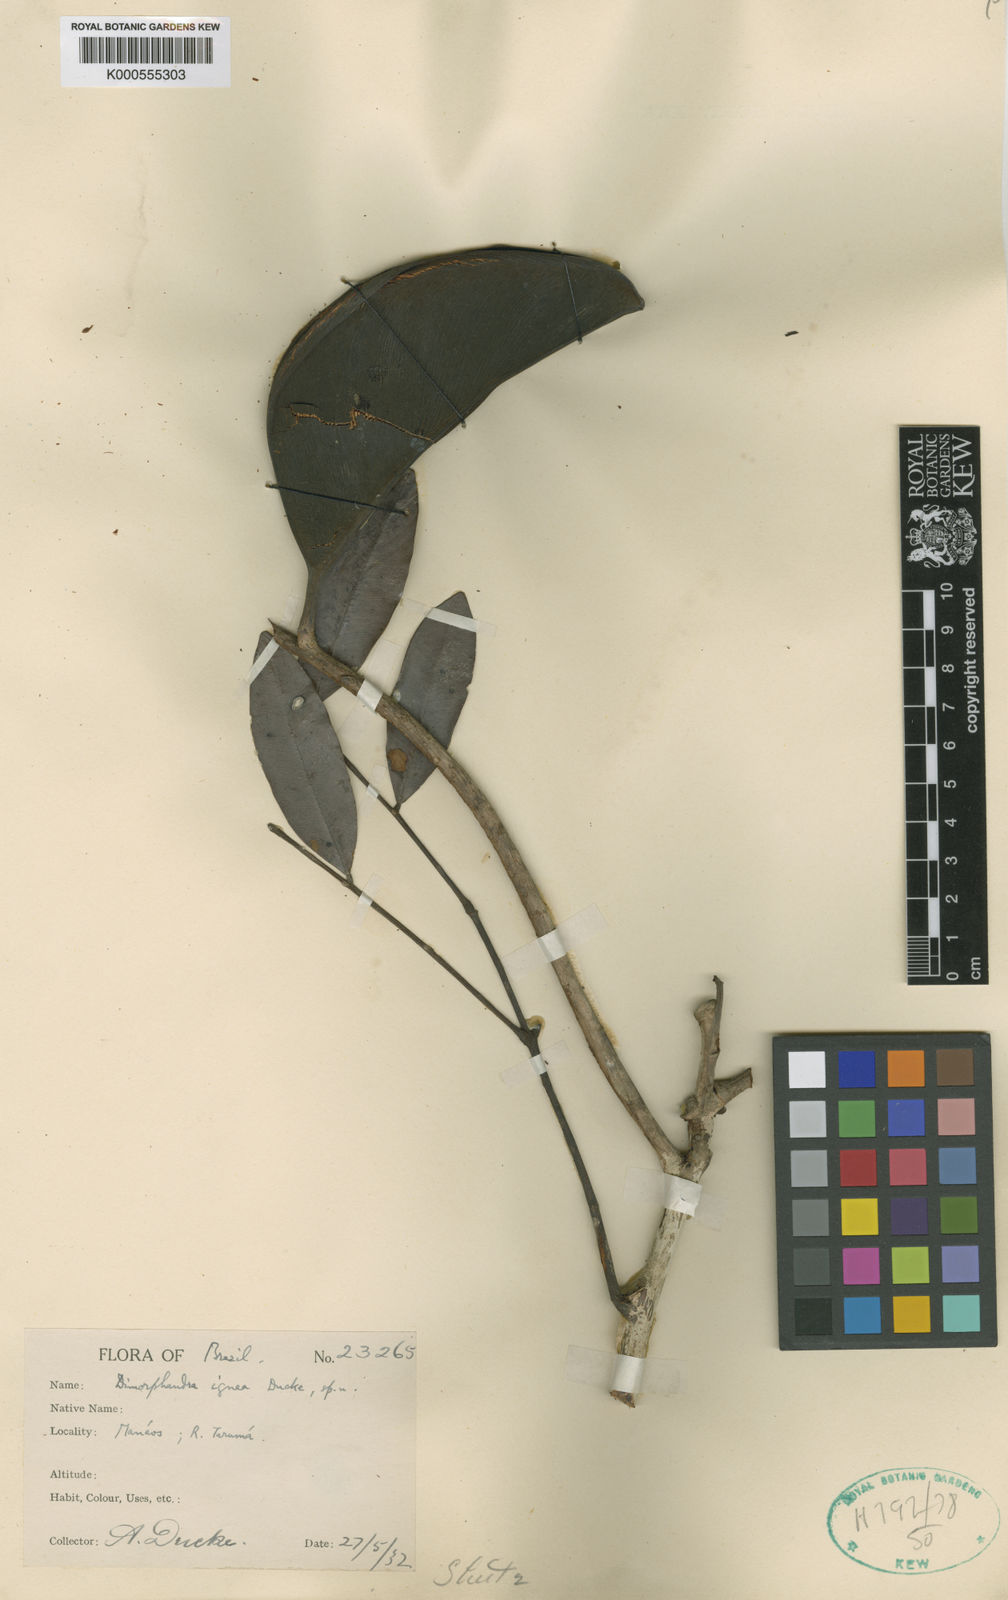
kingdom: Plantae
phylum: Tracheophyta
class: Magnoliopsida
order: Fabales
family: Fabaceae
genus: Dimorphandra
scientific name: Dimorphandra ignea
